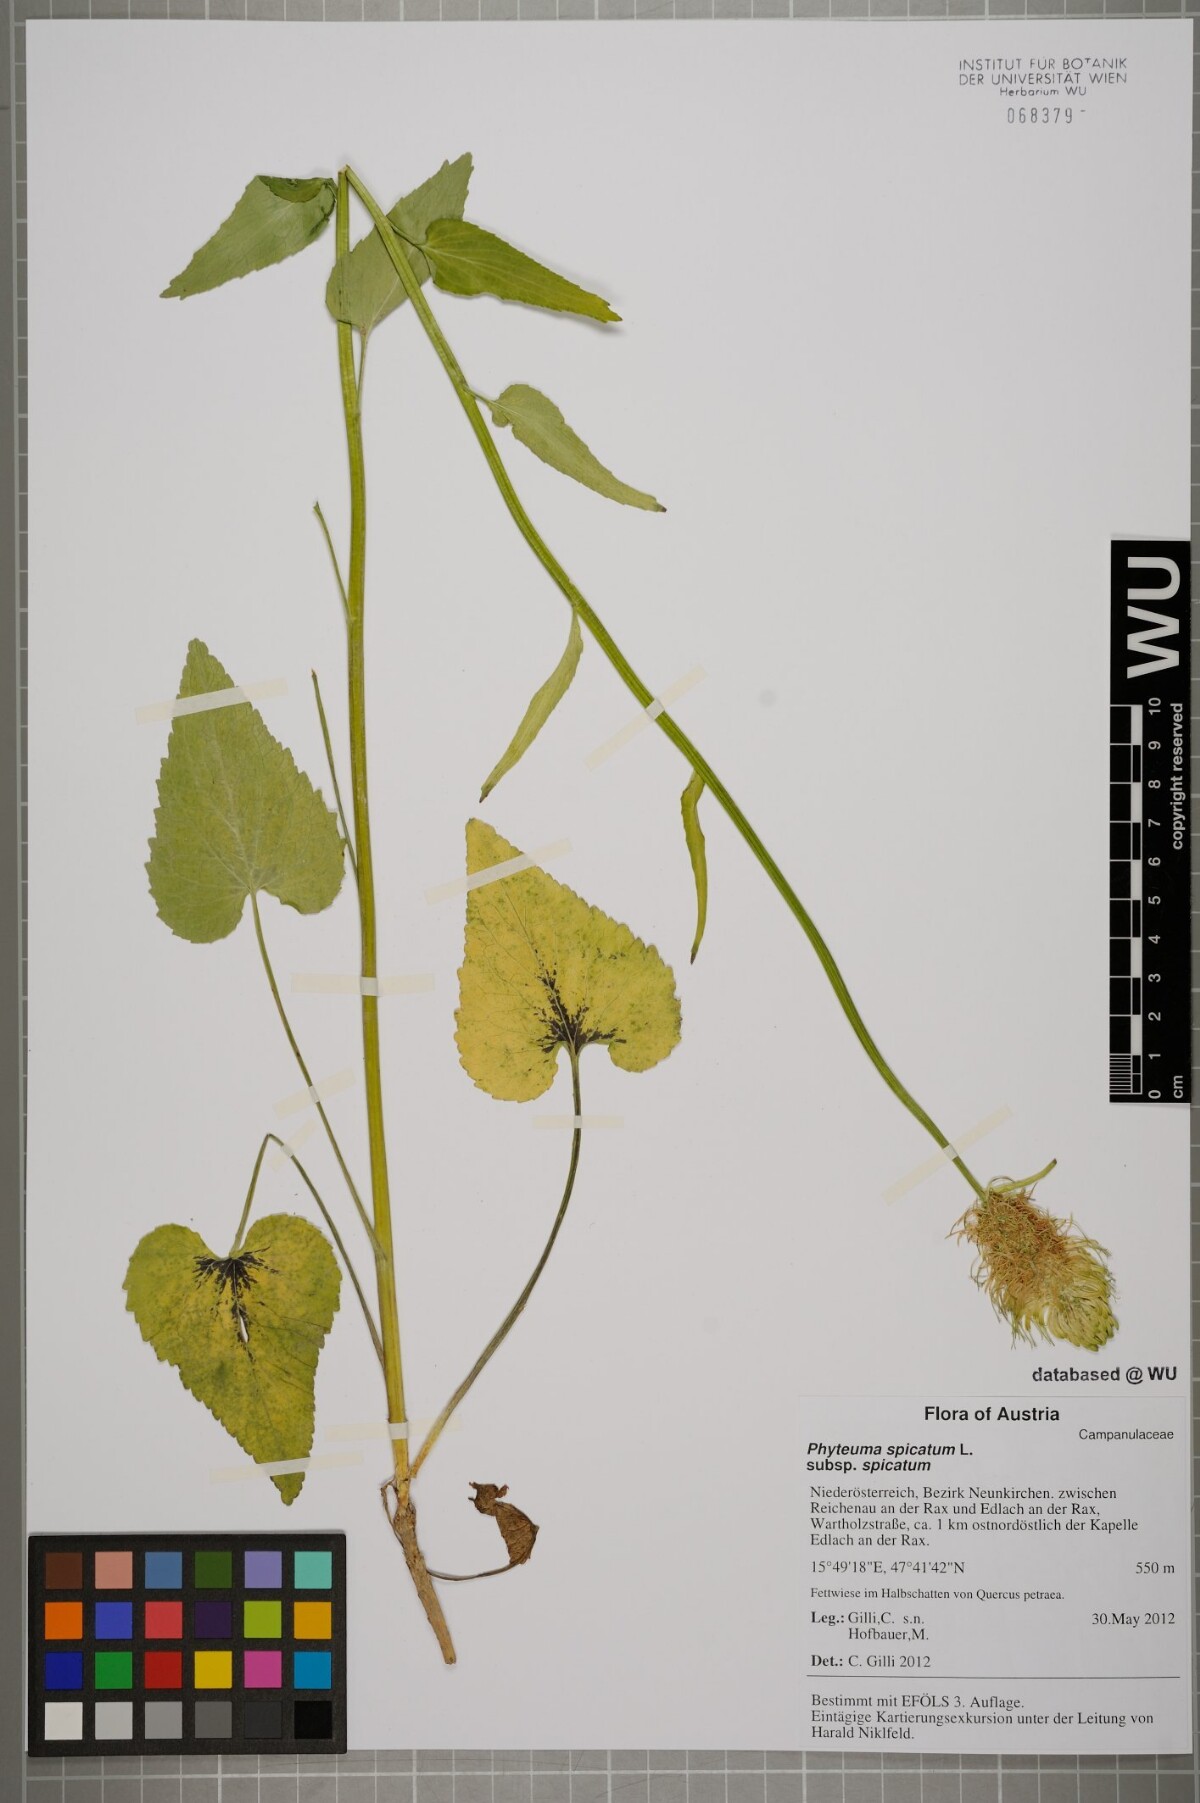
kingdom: Plantae
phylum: Tracheophyta
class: Magnoliopsida
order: Asterales
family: Campanulaceae
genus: Phyteuma
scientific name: Phyteuma spicatum
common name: Spiked rampion
